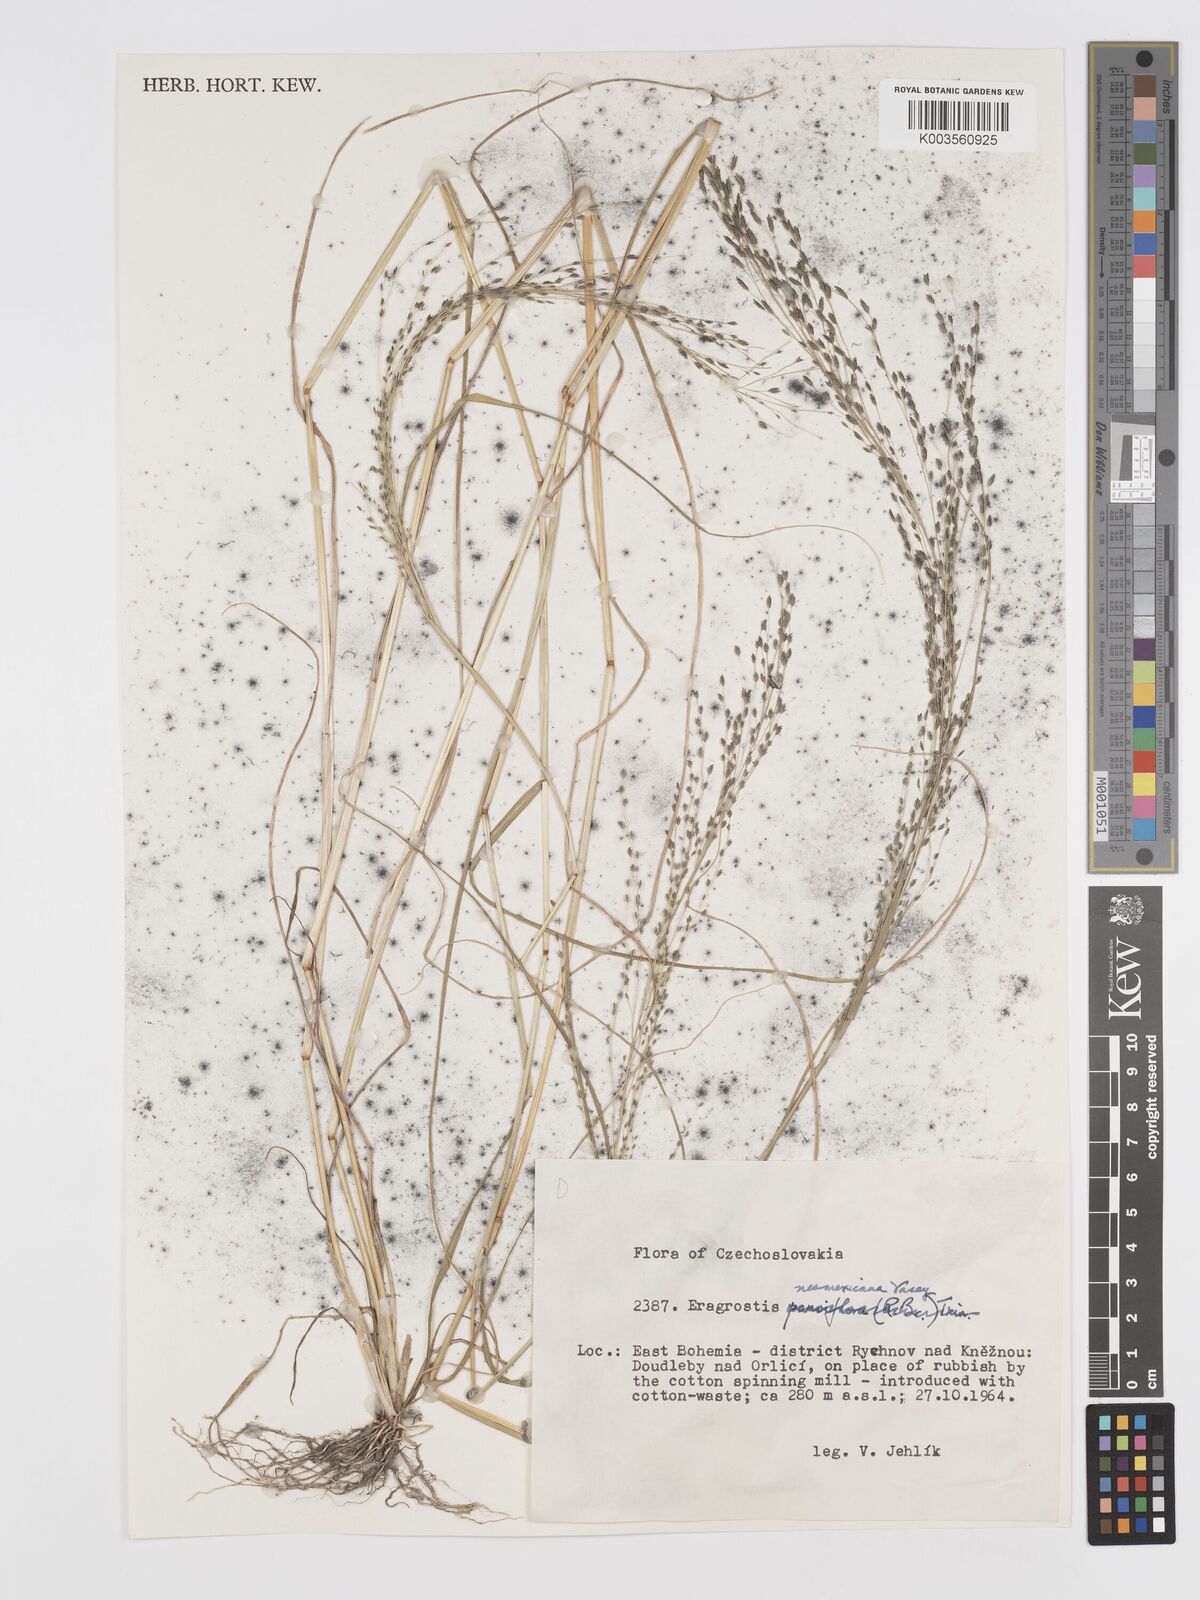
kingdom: Plantae
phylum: Tracheophyta
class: Liliopsida
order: Poales
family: Poaceae
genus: Eragrostis
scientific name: Eragrostis mexicana
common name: Mexican love grass
